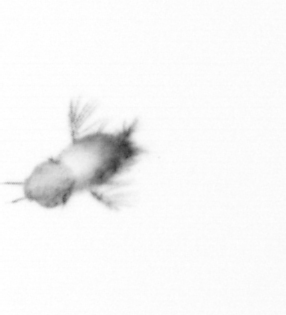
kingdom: Animalia
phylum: Arthropoda
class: Copepoda
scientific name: Copepoda
